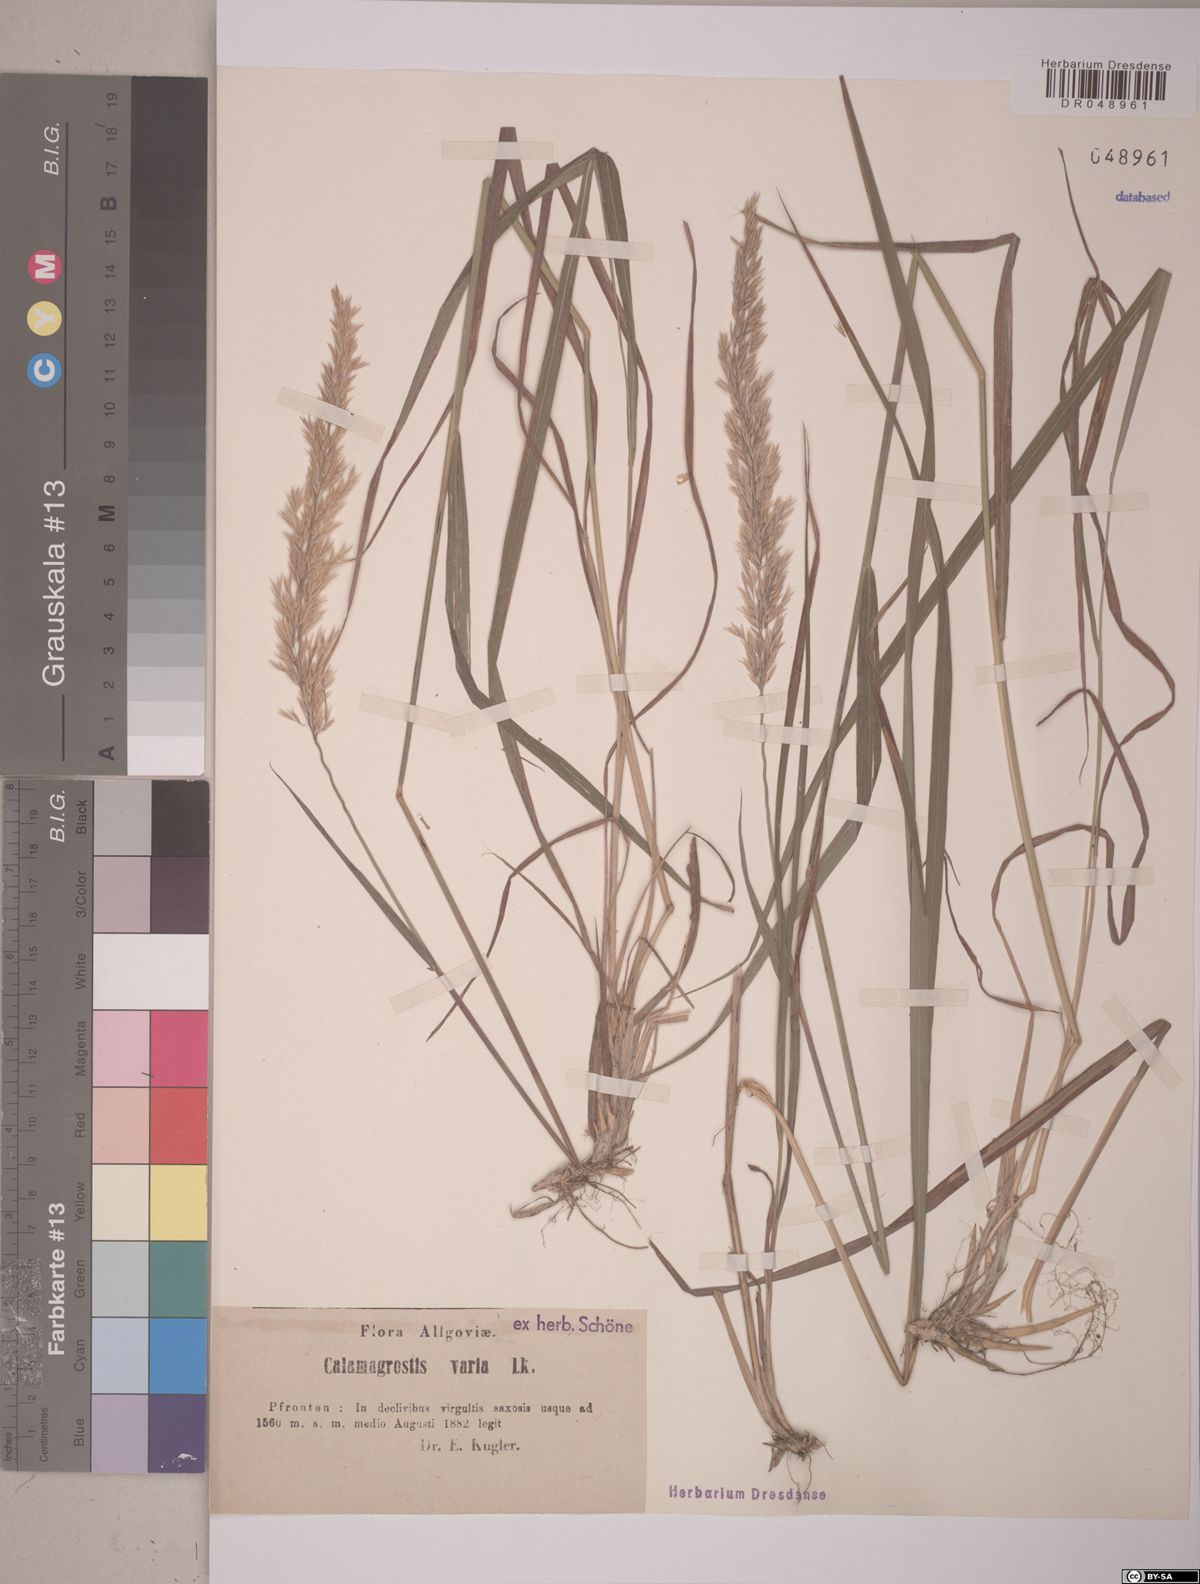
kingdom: Plantae
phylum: Tracheophyta
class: Liliopsida
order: Poales
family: Poaceae
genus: Calamagrostis
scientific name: Calamagrostis varia
